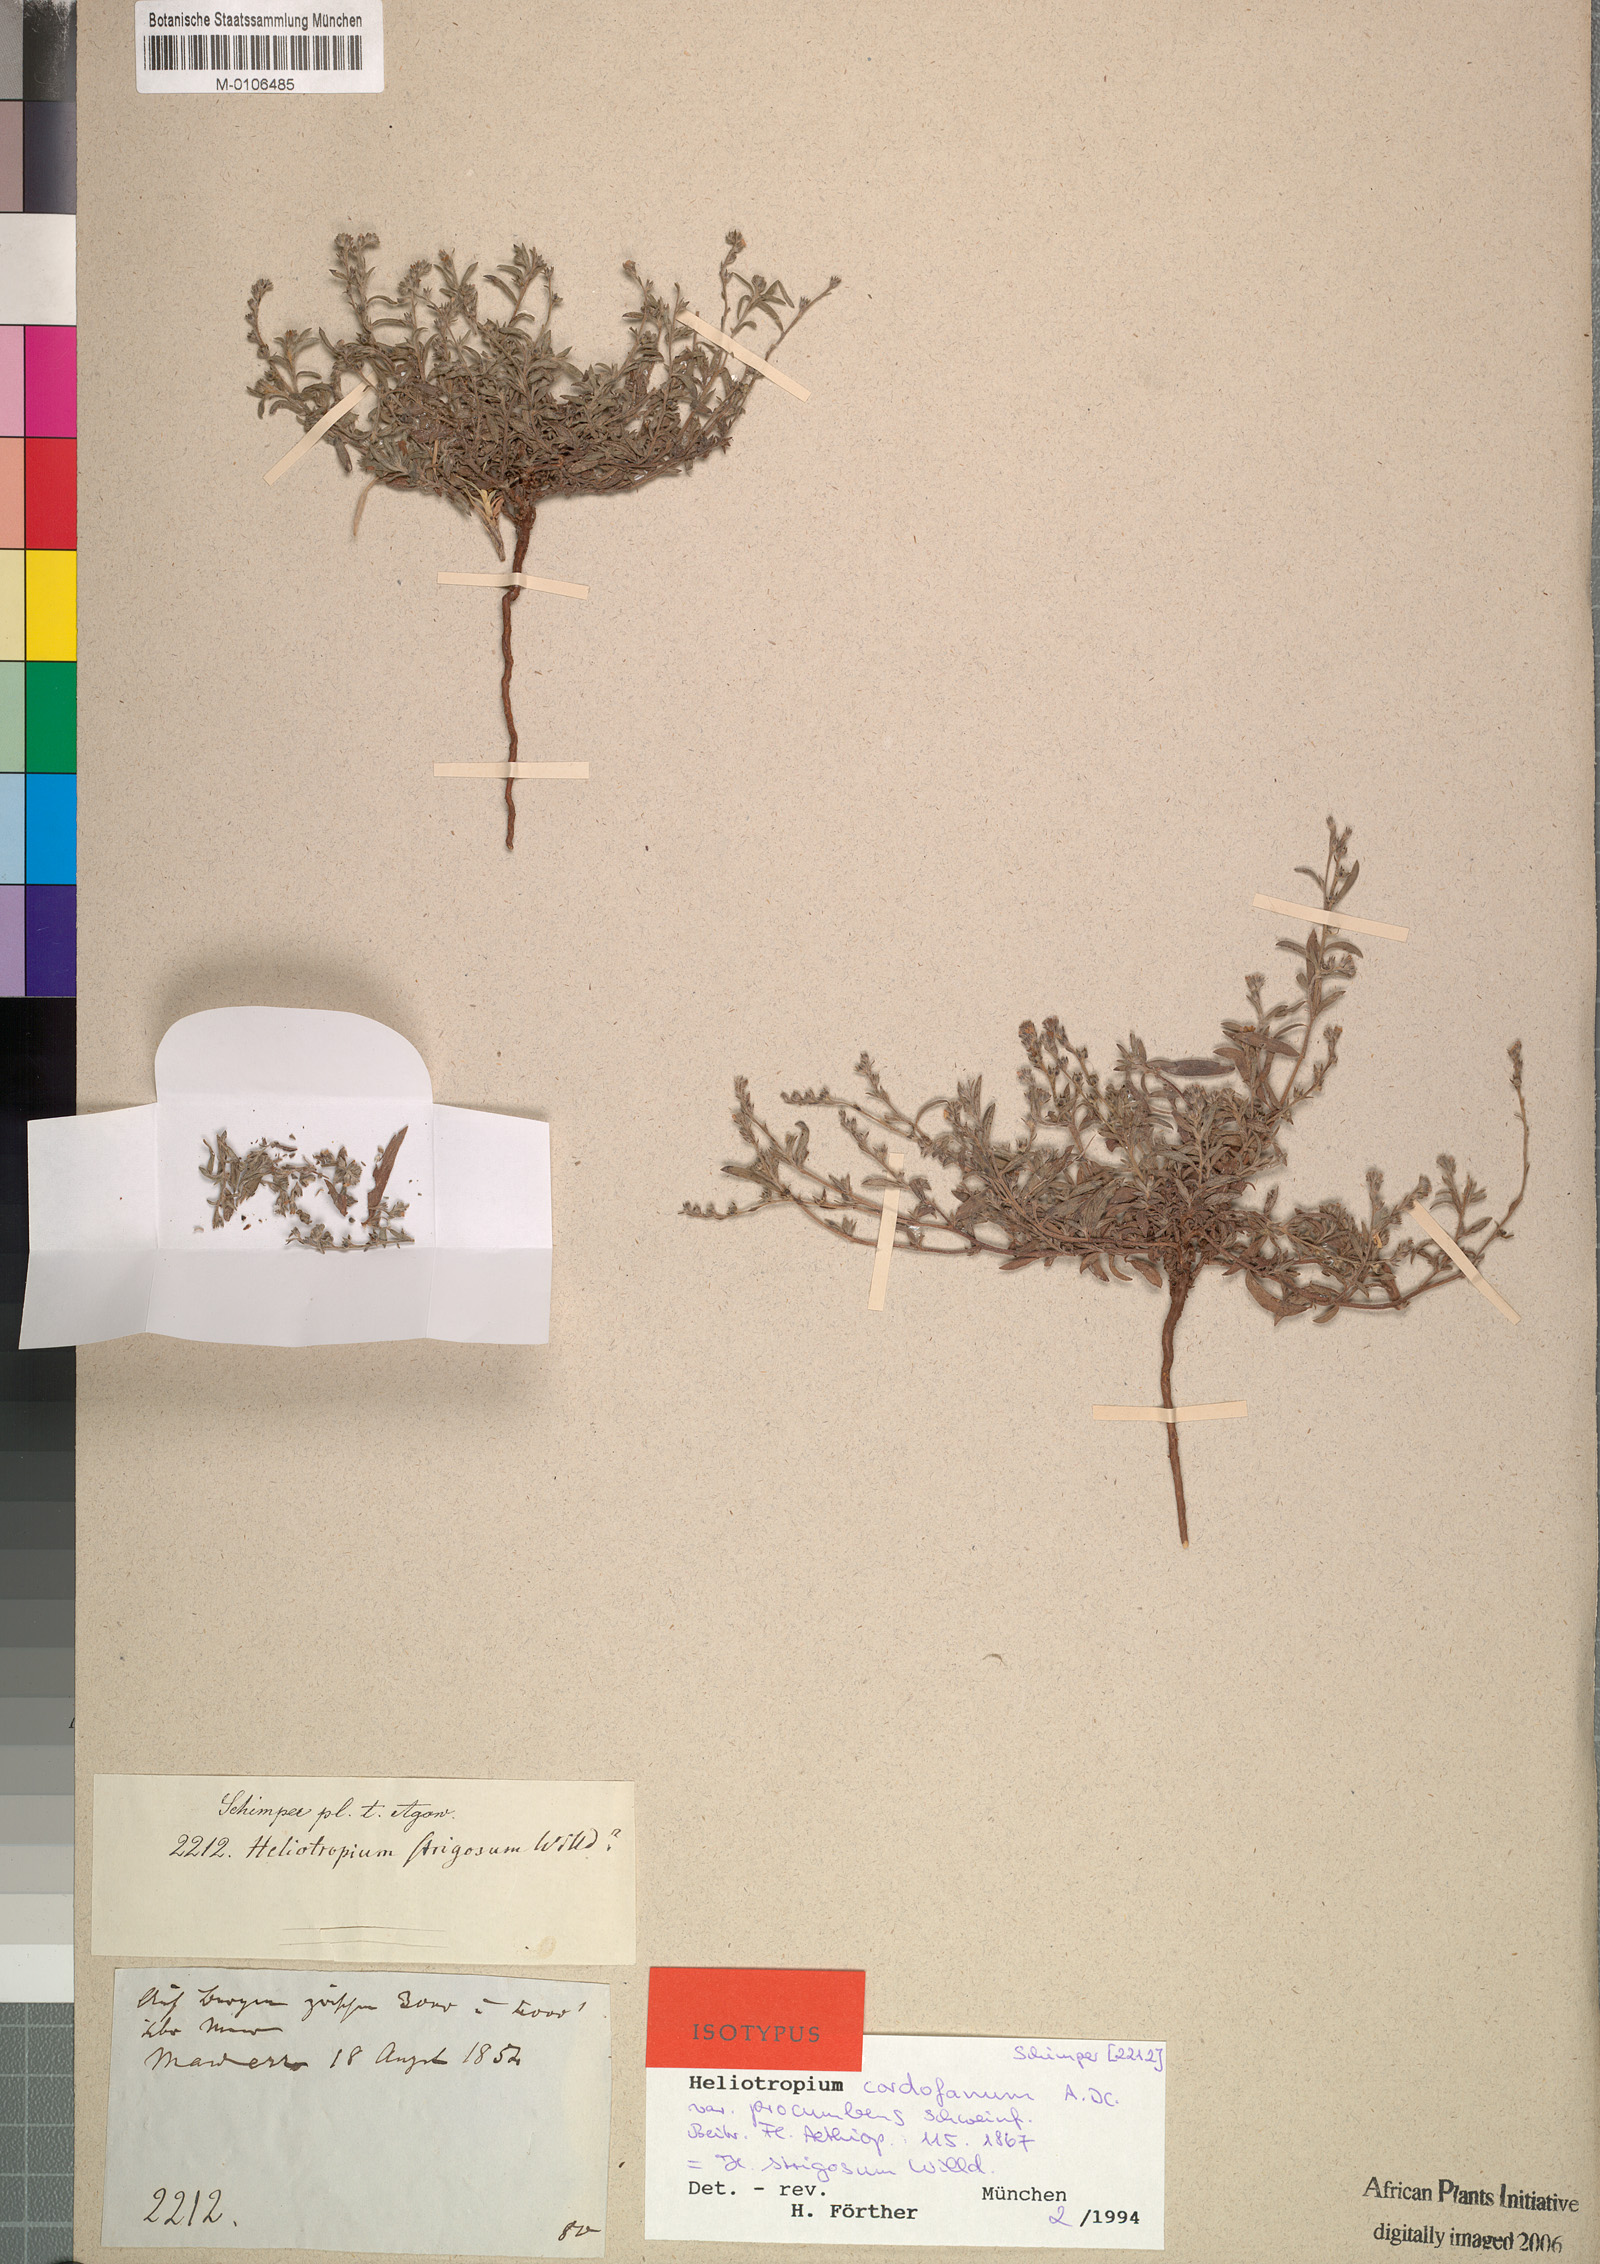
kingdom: Plantae
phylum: Tracheophyta
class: Magnoliopsida
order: Boraginales
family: Heliotropiaceae
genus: Euploca
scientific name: Euploca strigosa
